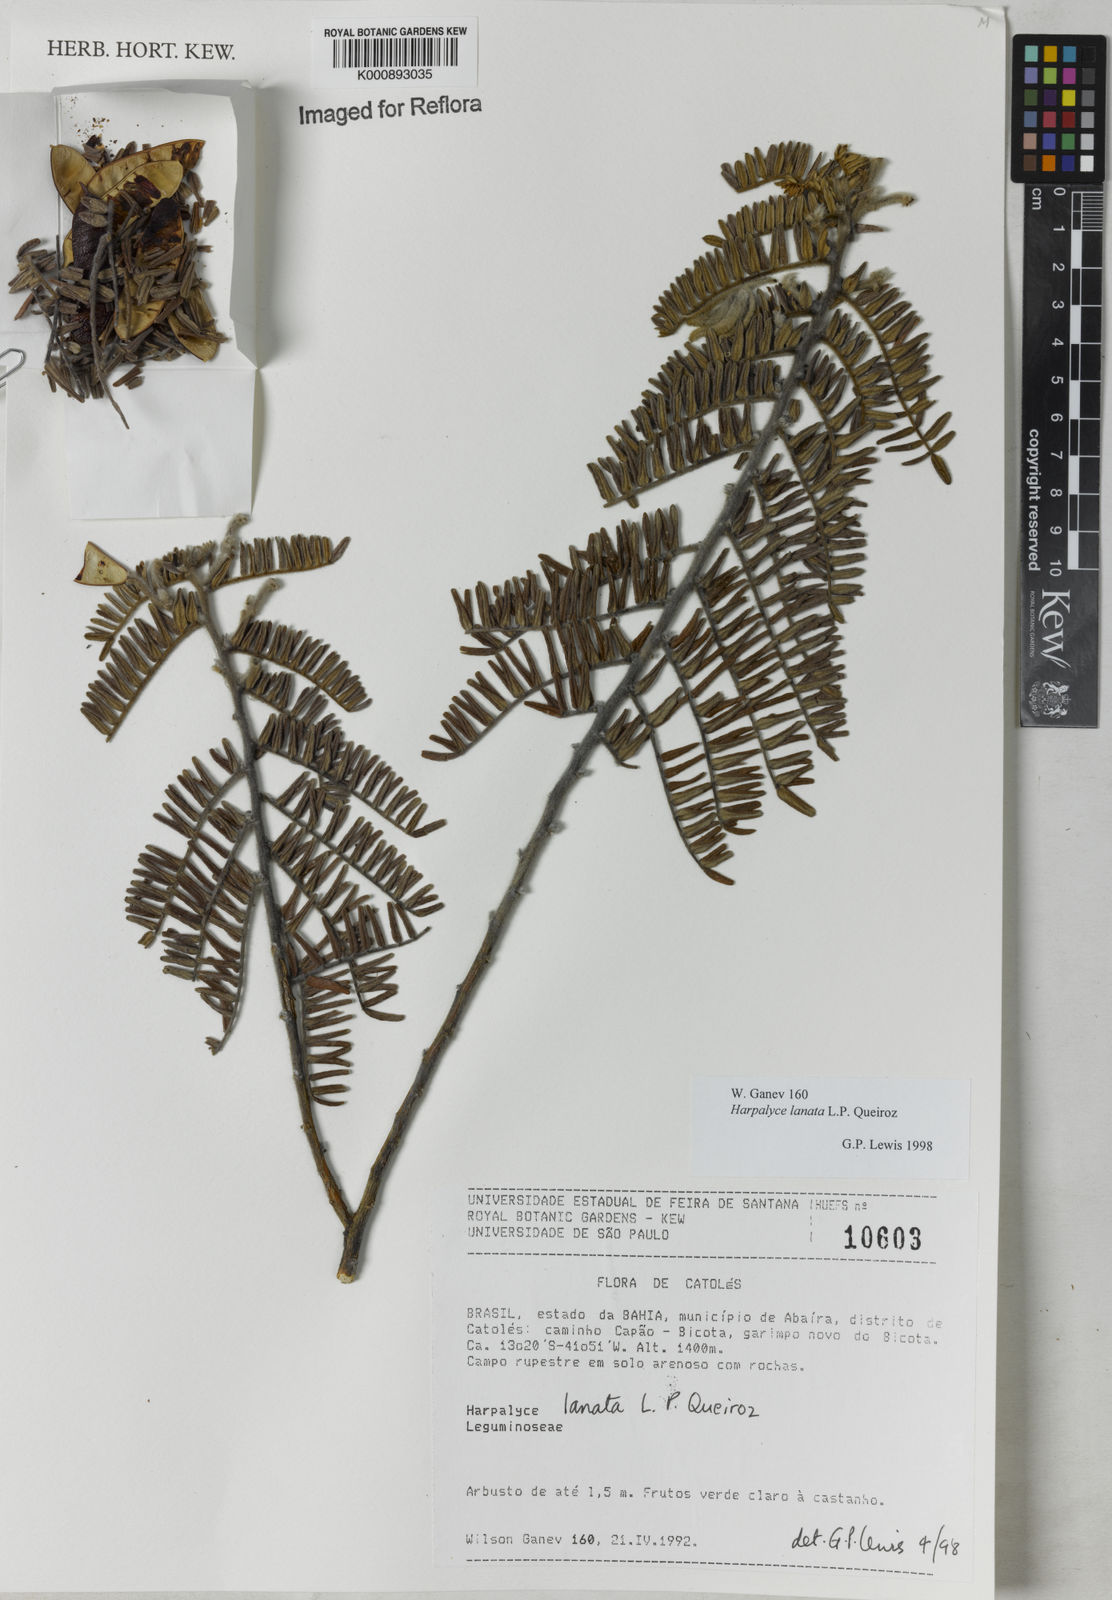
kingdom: Plantae
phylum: Tracheophyta
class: Magnoliopsida
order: Fabales
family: Fabaceae
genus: Harpalyce
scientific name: Harpalyce lanata
